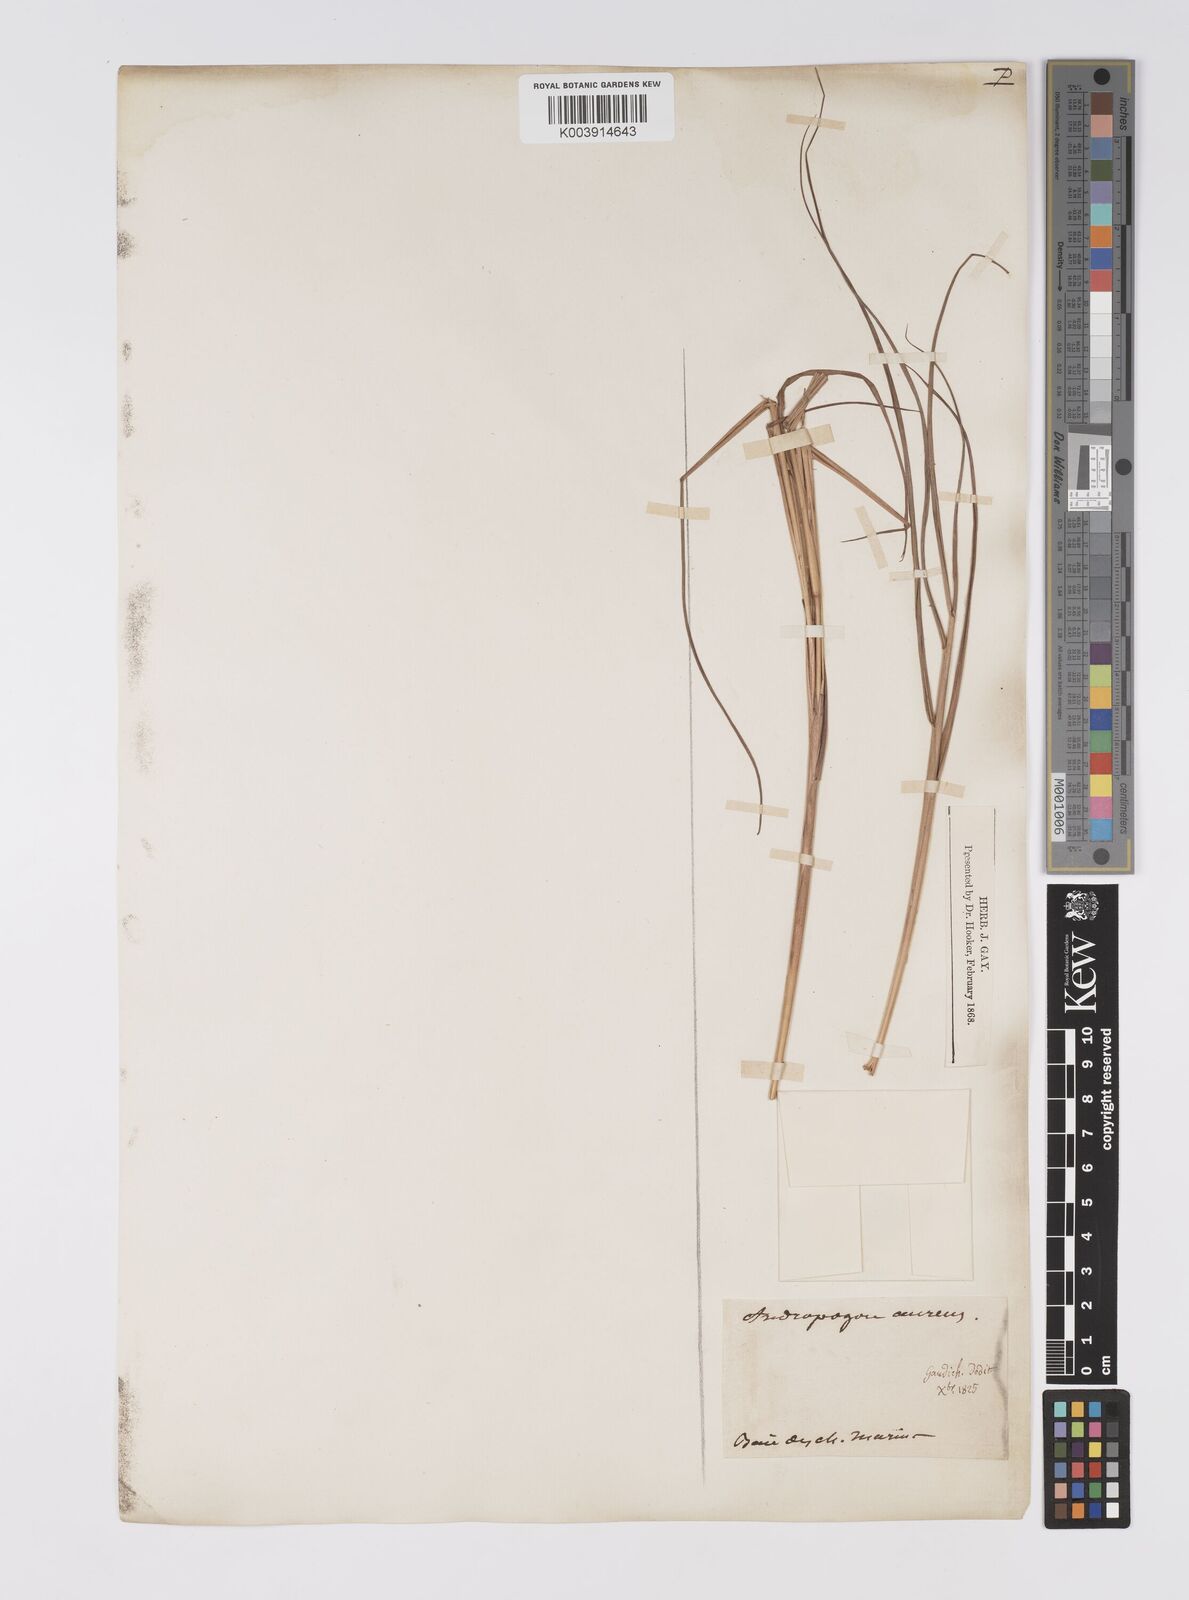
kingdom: Plantae
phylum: Tracheophyta
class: Liliopsida
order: Poales
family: Poaceae
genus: Eulalia
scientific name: Eulalia aurea
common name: Silky browntop
